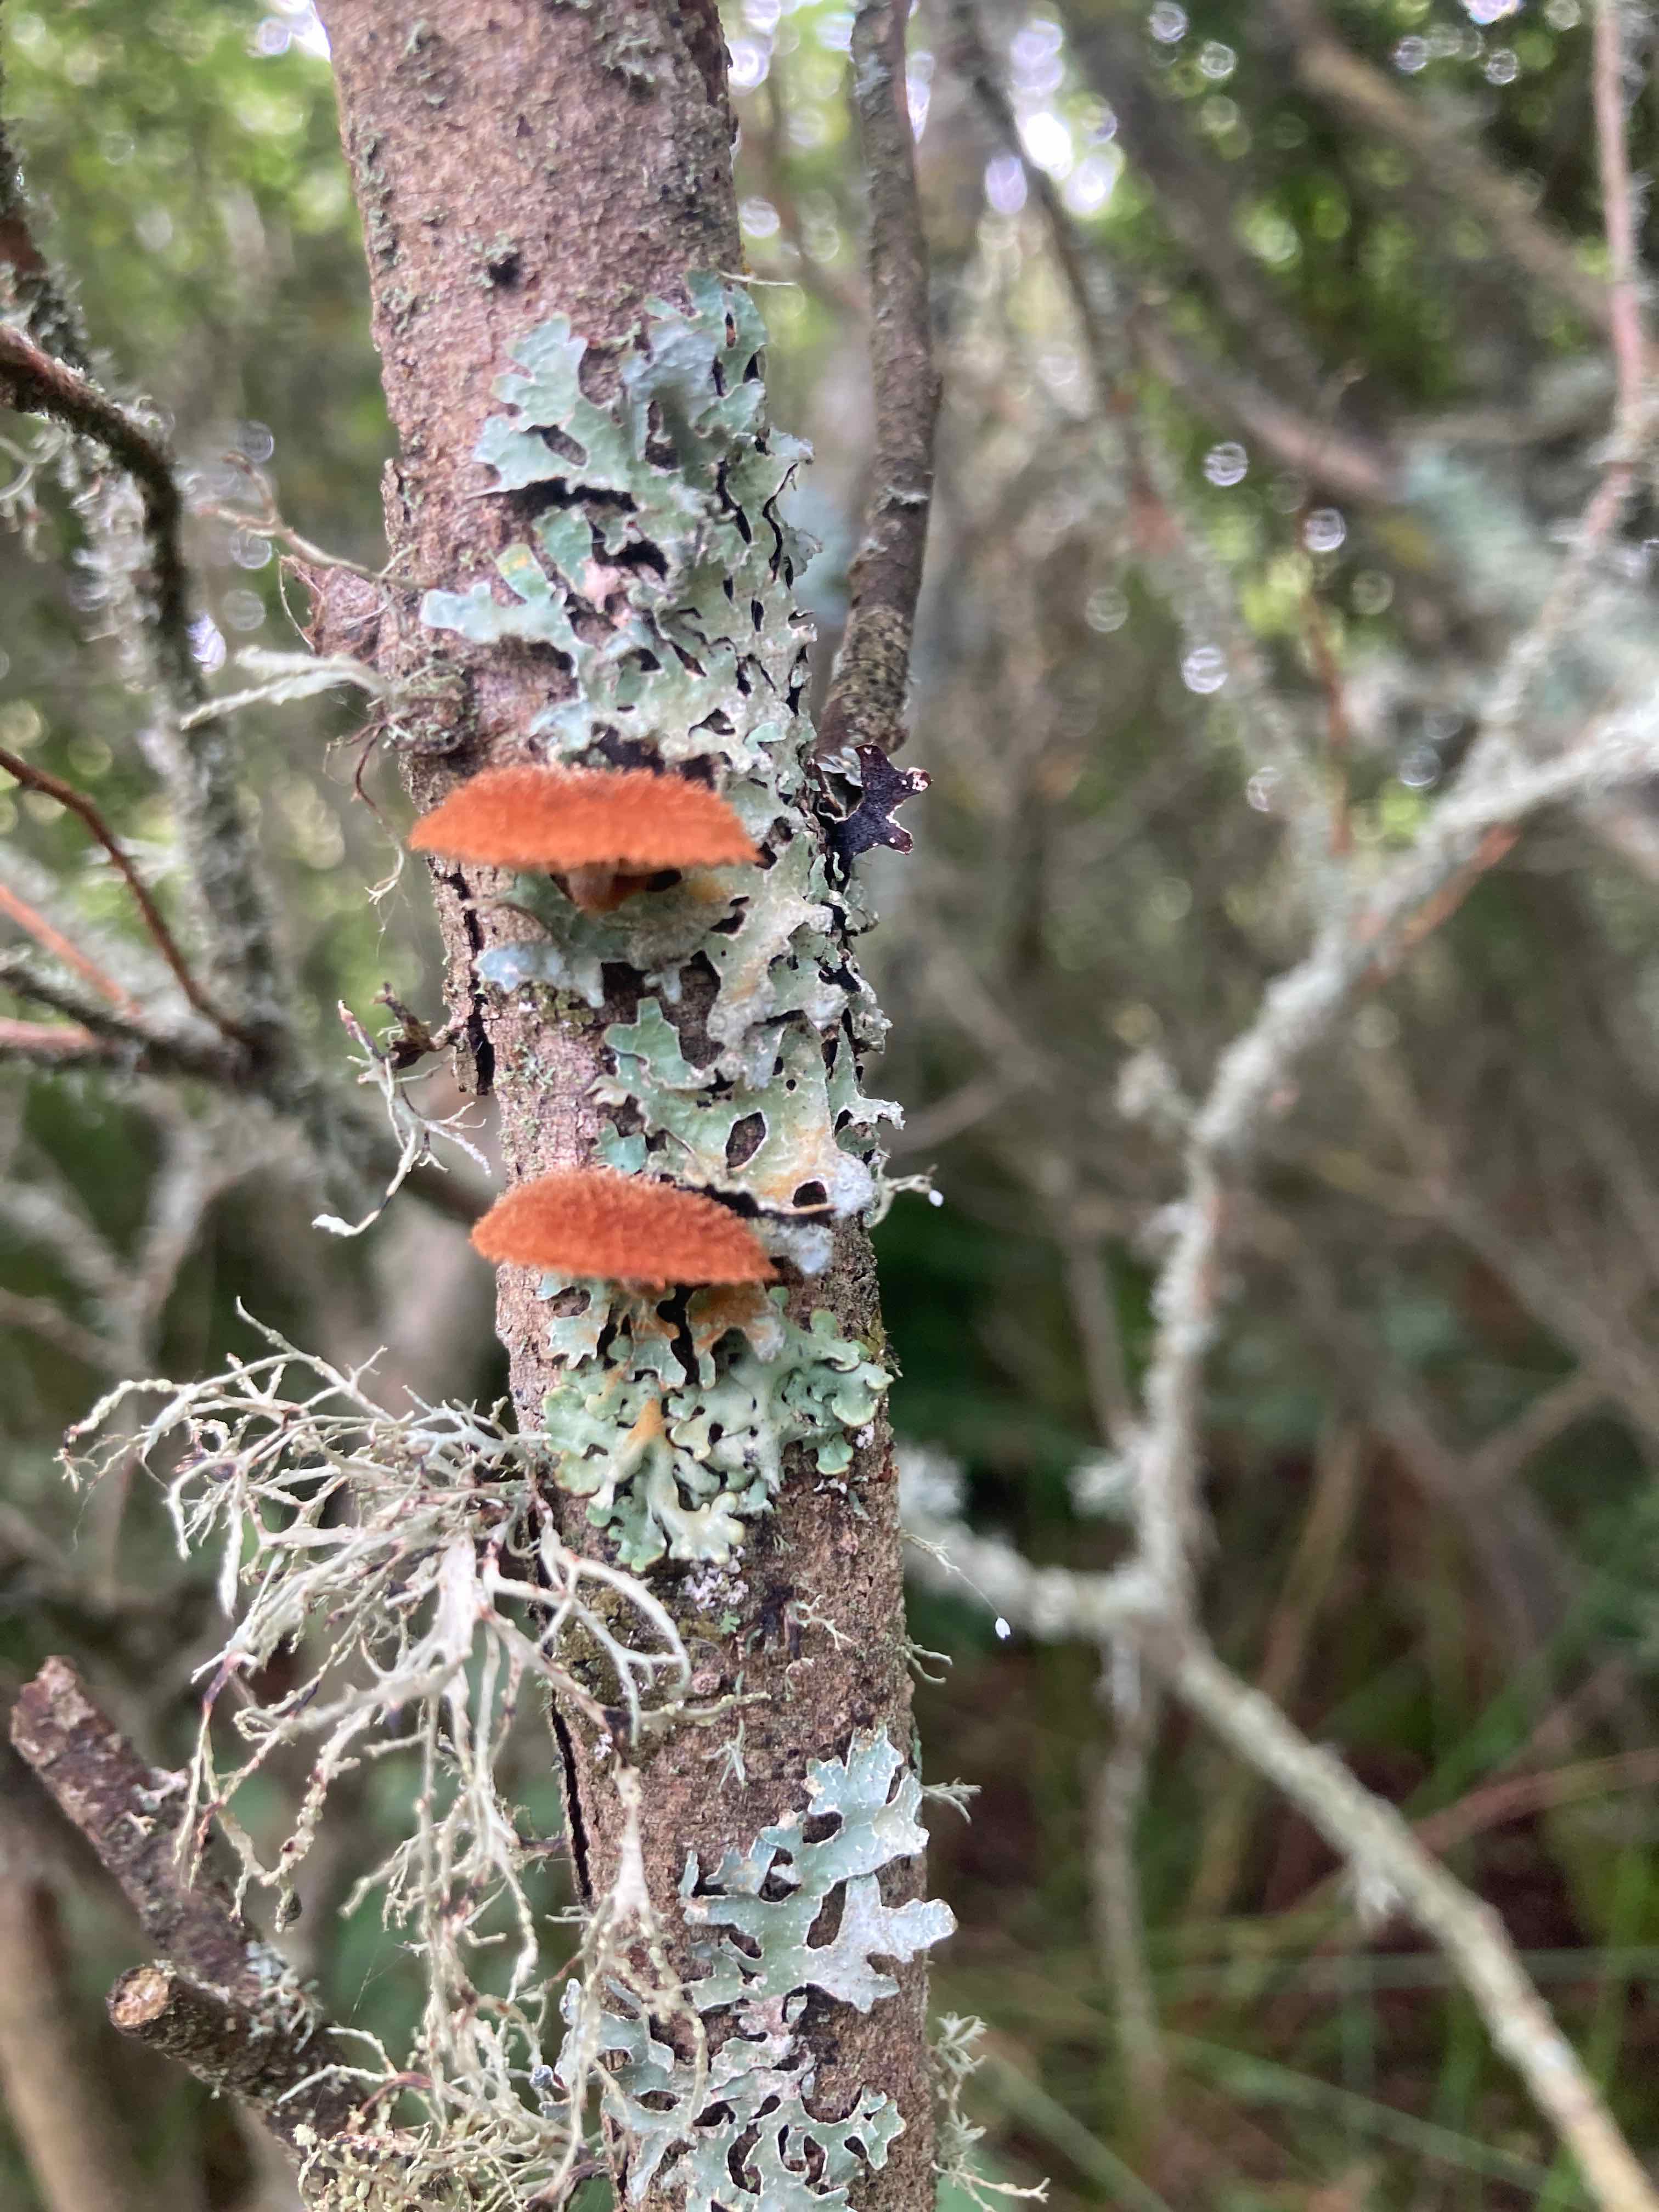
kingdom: Fungi
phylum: Basidiomycota
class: Agaricomycetes
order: Agaricales
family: Tubariaceae
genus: Phaeomarasmius
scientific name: Phaeomarasmius erinaceus
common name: spidsskælhat
